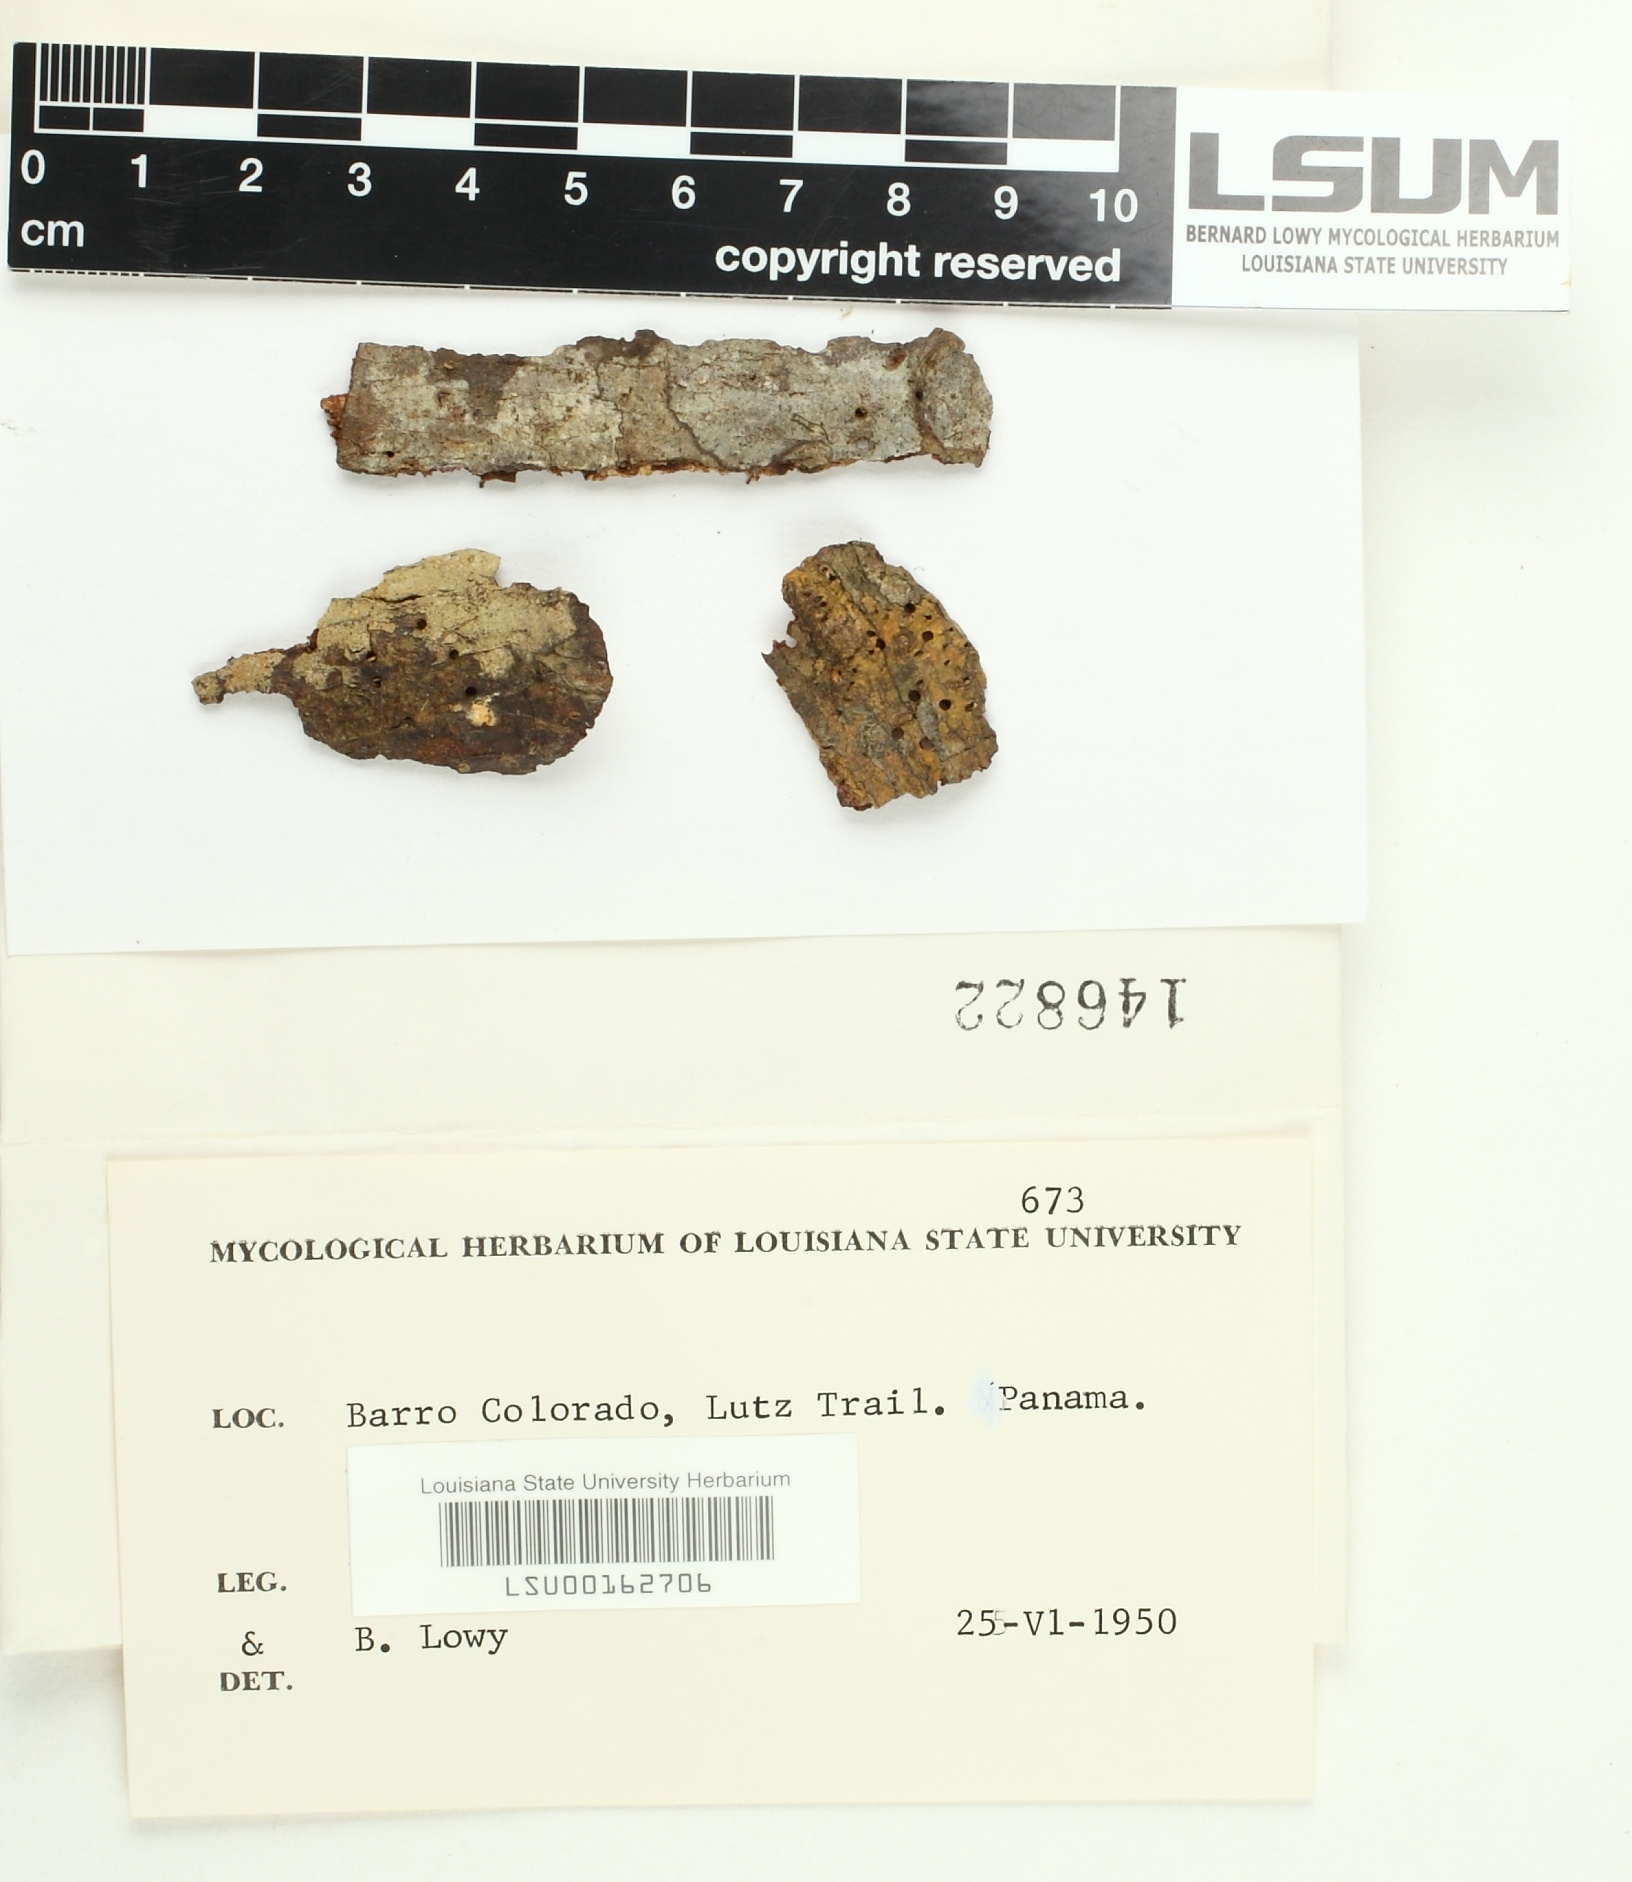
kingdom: Fungi
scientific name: Fungi
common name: Fungi
